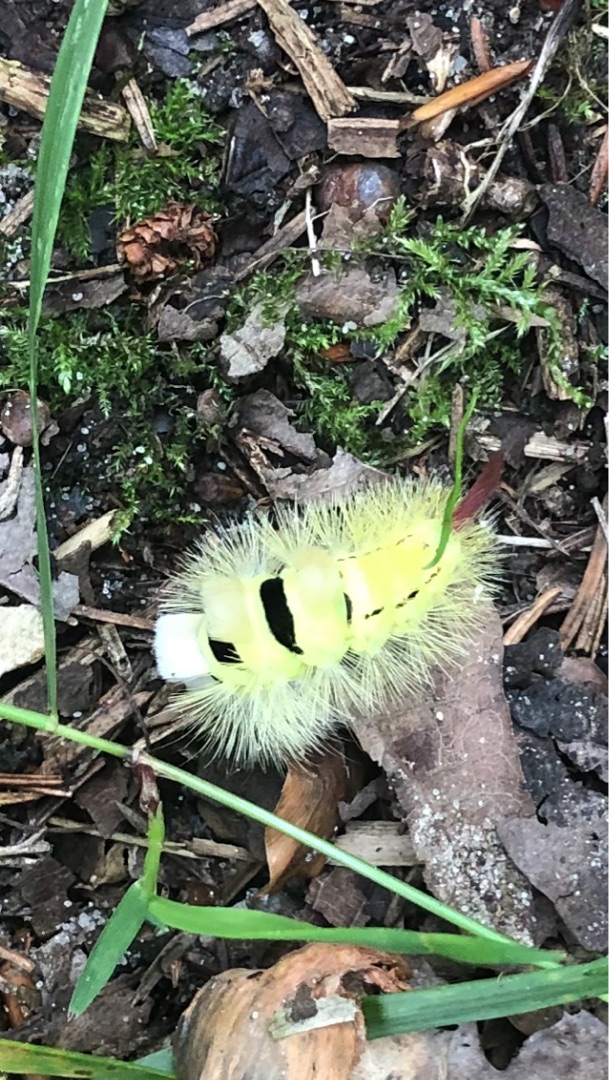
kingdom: Animalia
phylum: Arthropoda
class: Insecta
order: Lepidoptera
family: Erebidae
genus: Calliteara
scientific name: Calliteara pudibunda
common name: Bøgenonne
